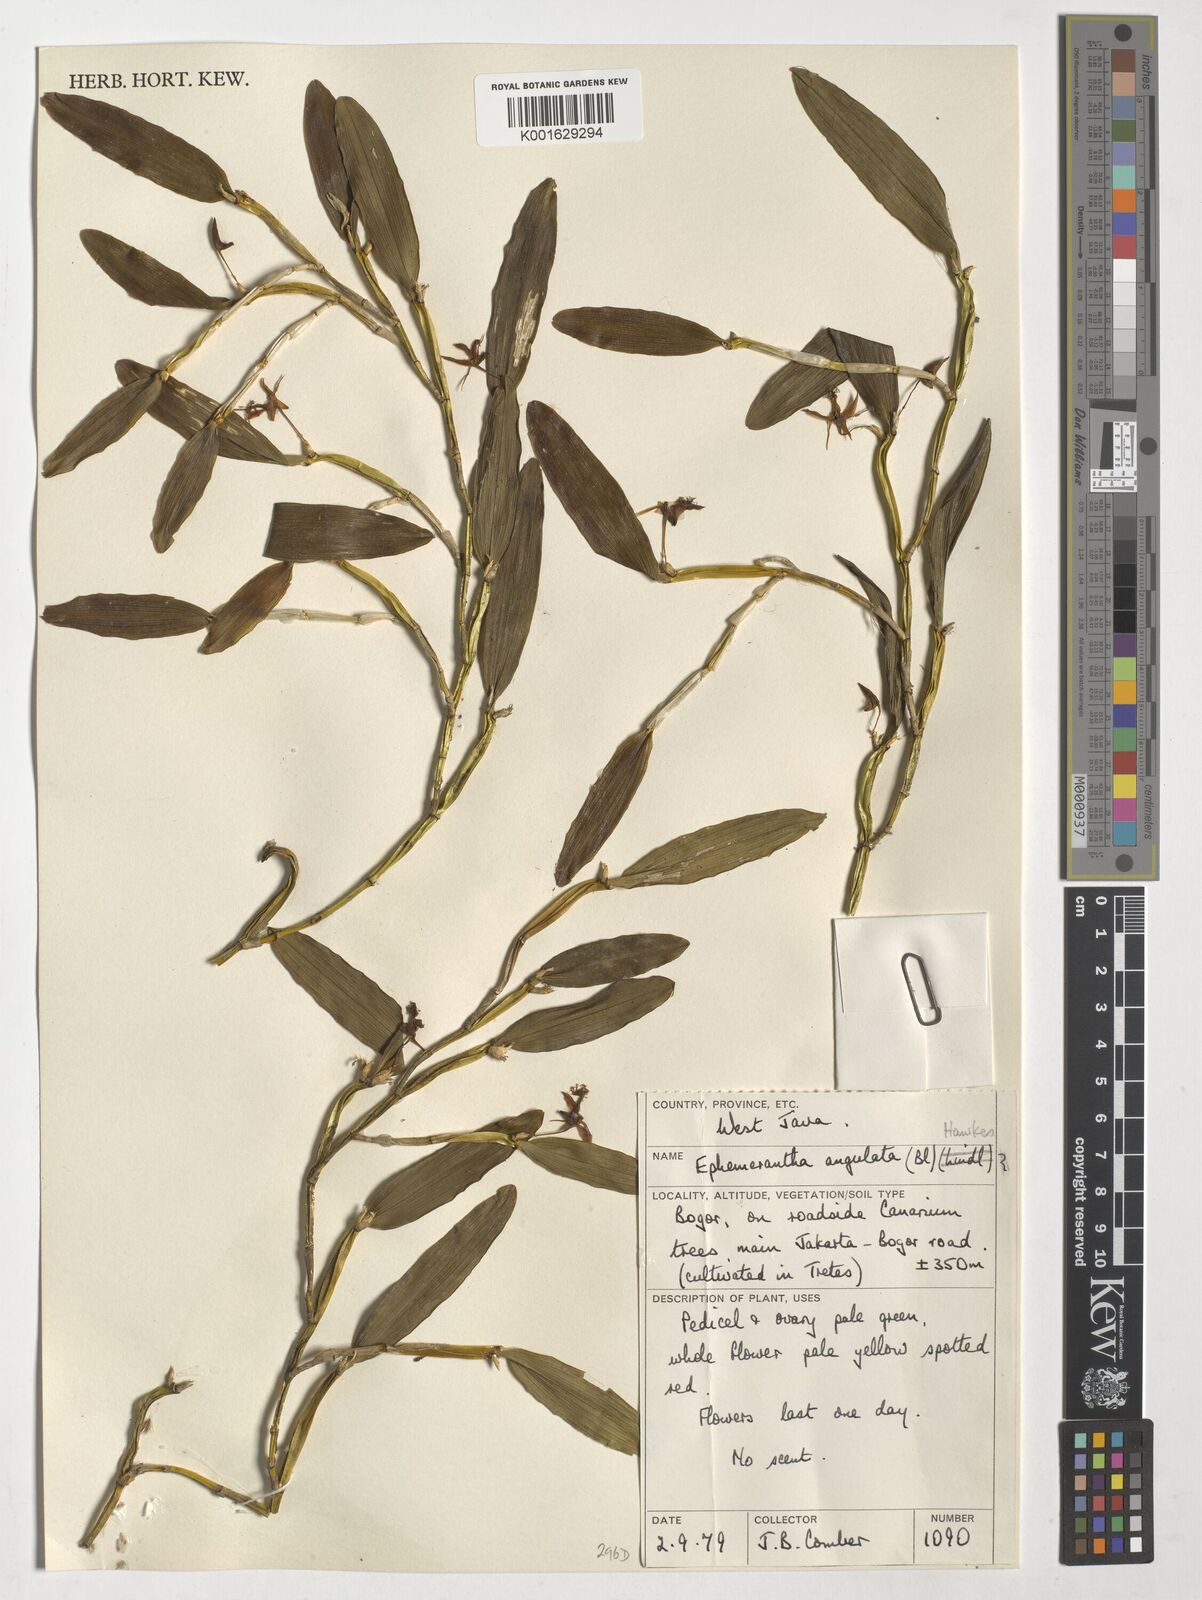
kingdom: Plantae
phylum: Tracheophyta
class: Liliopsida
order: Asparagales
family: Orchidaceae
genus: Arundina
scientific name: Arundina graminifolia
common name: Bamboo orchid
